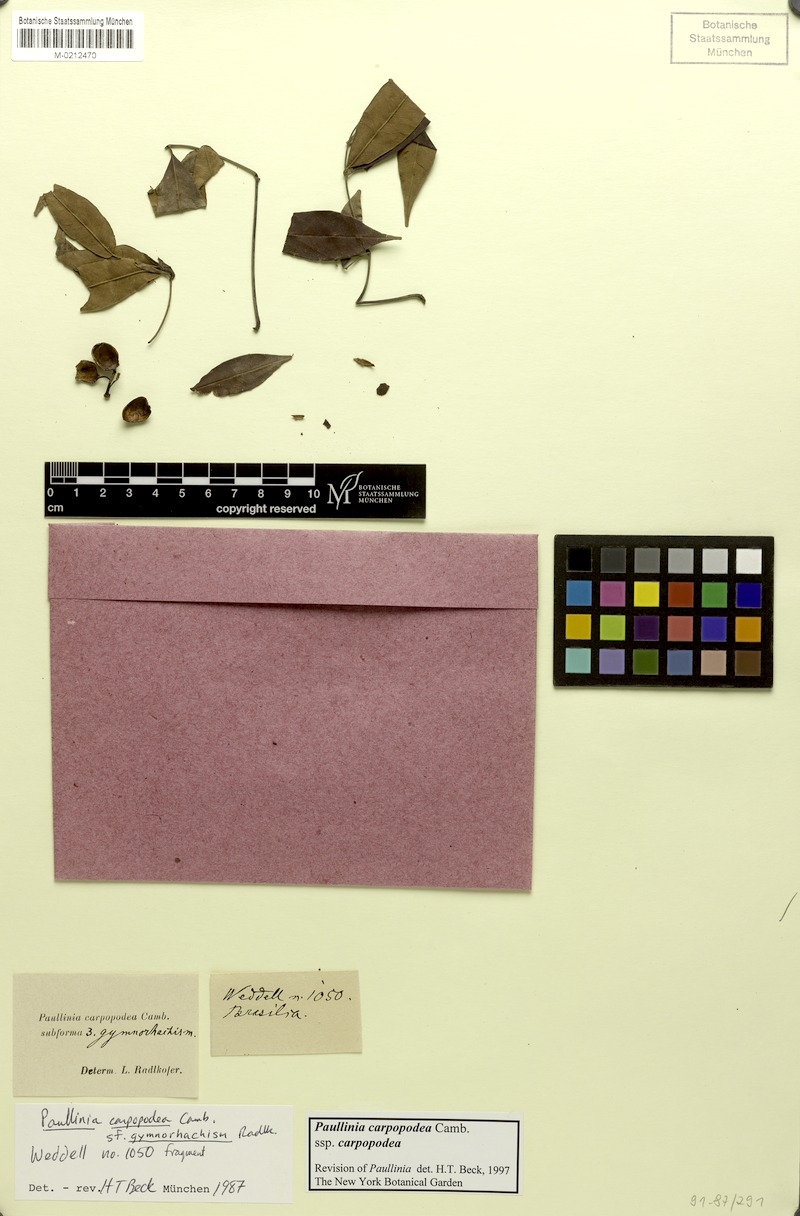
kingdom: Plantae
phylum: Tracheophyta
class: Magnoliopsida
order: Sapindales
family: Sapindaceae
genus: Paullinia
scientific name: Paullinia carpopoda
